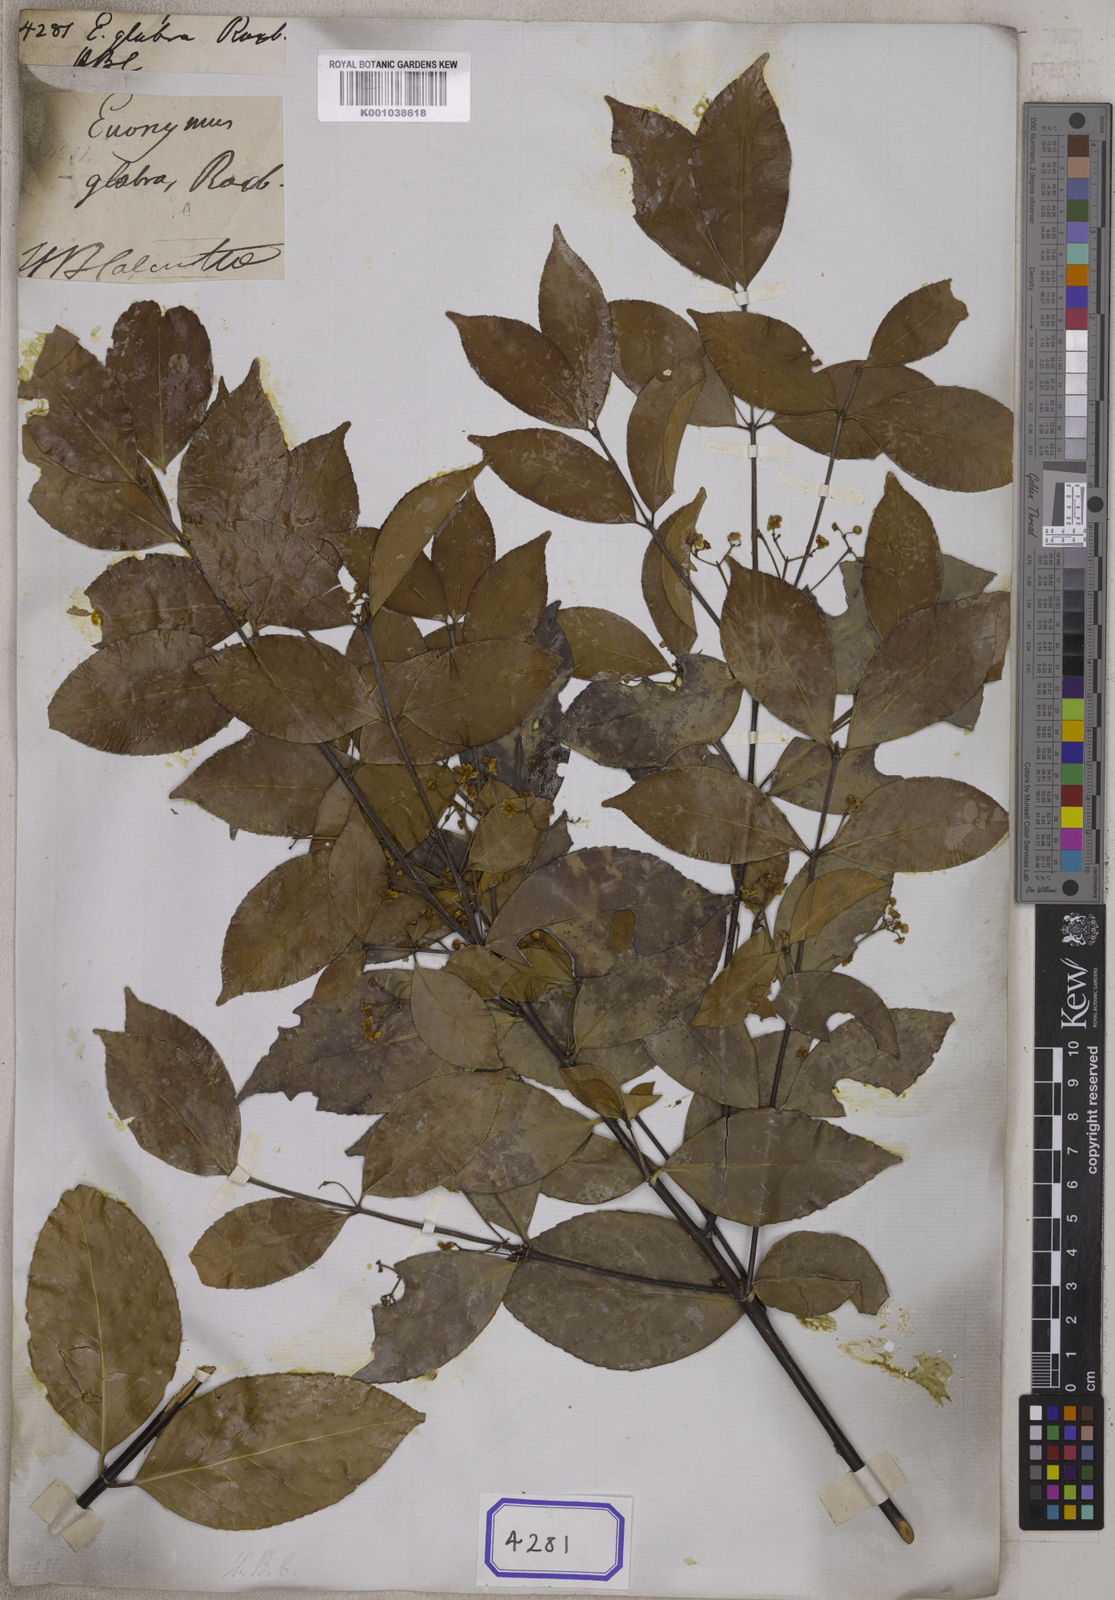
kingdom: Plantae
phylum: Tracheophyta
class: Magnoliopsida
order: Celastrales
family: Celastraceae
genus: Euonymus
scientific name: Euonymus glaber
